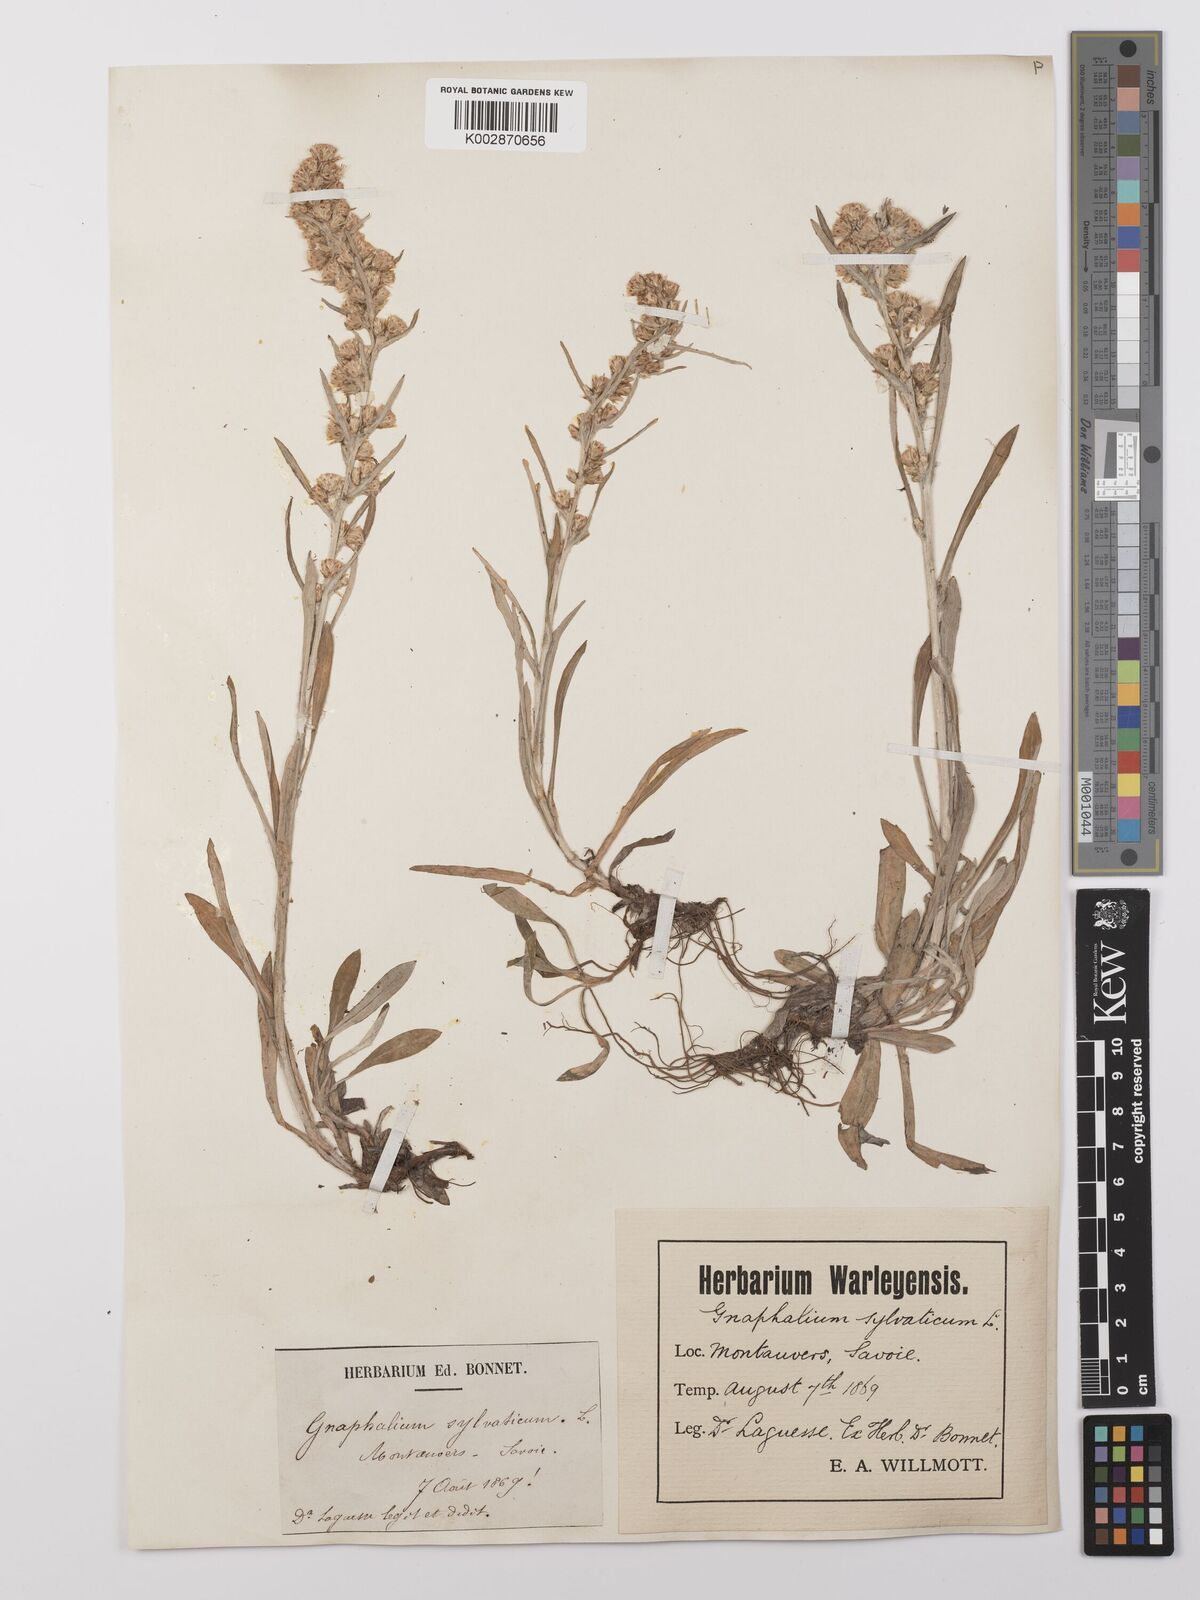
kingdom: Plantae
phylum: Tracheophyta
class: Magnoliopsida
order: Asterales
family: Asteraceae
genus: Omalotheca
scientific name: Omalotheca sylvatica
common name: Heath cudweed
